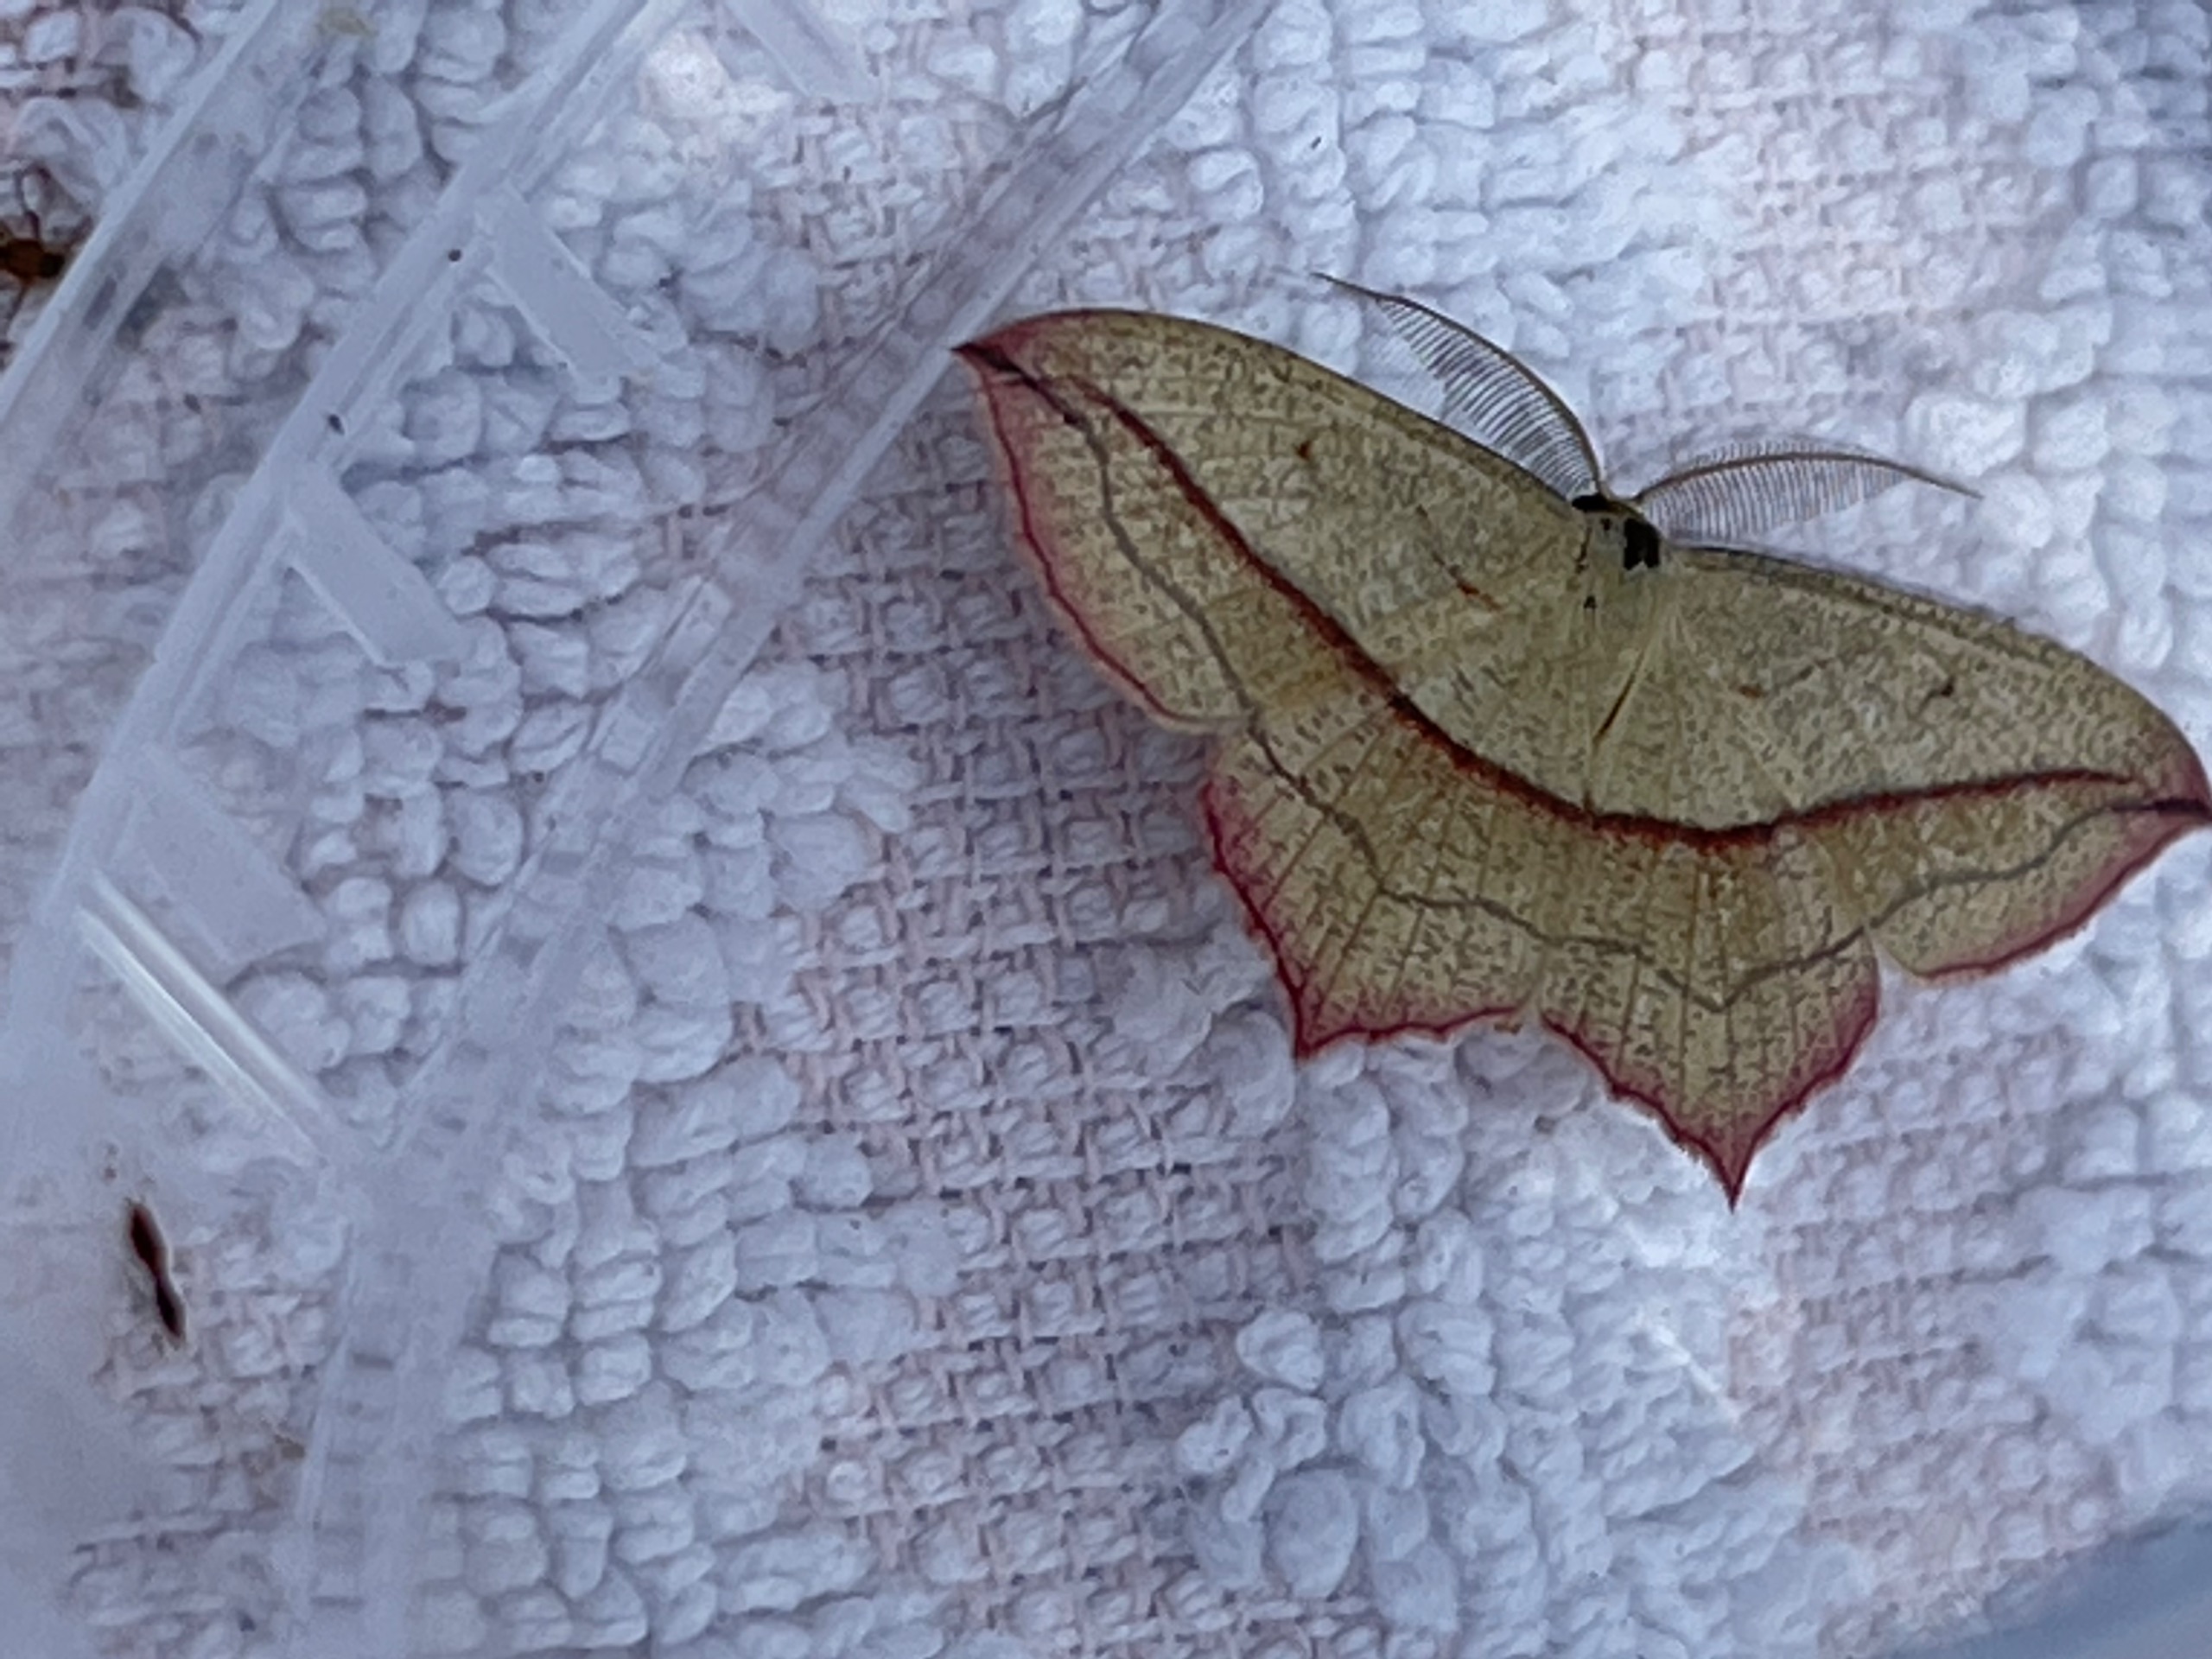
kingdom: Animalia
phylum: Arthropoda
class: Insecta
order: Lepidoptera
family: Geometridae
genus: Timandra
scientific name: Timandra comae
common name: Gul syremåler
